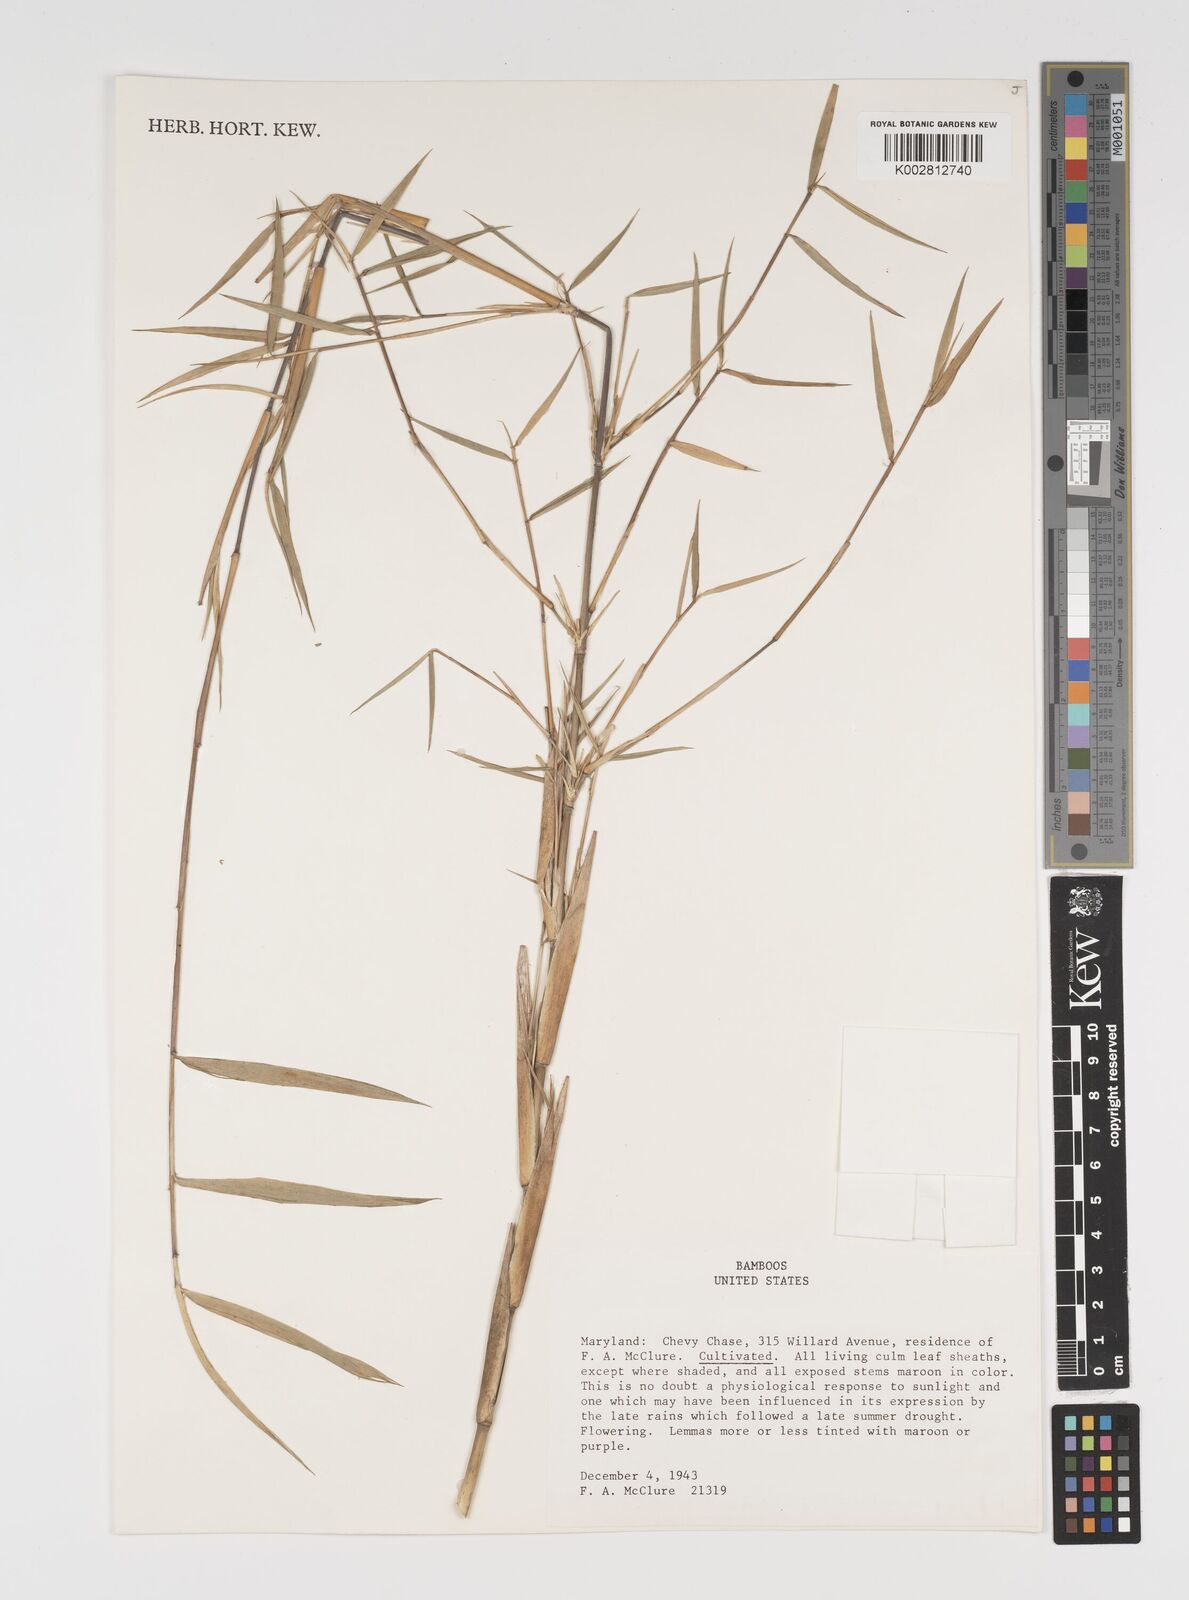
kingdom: Plantae
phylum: Tracheophyta
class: Liliopsida
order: Poales
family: Poaceae
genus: Arundinaria
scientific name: Arundinaria
